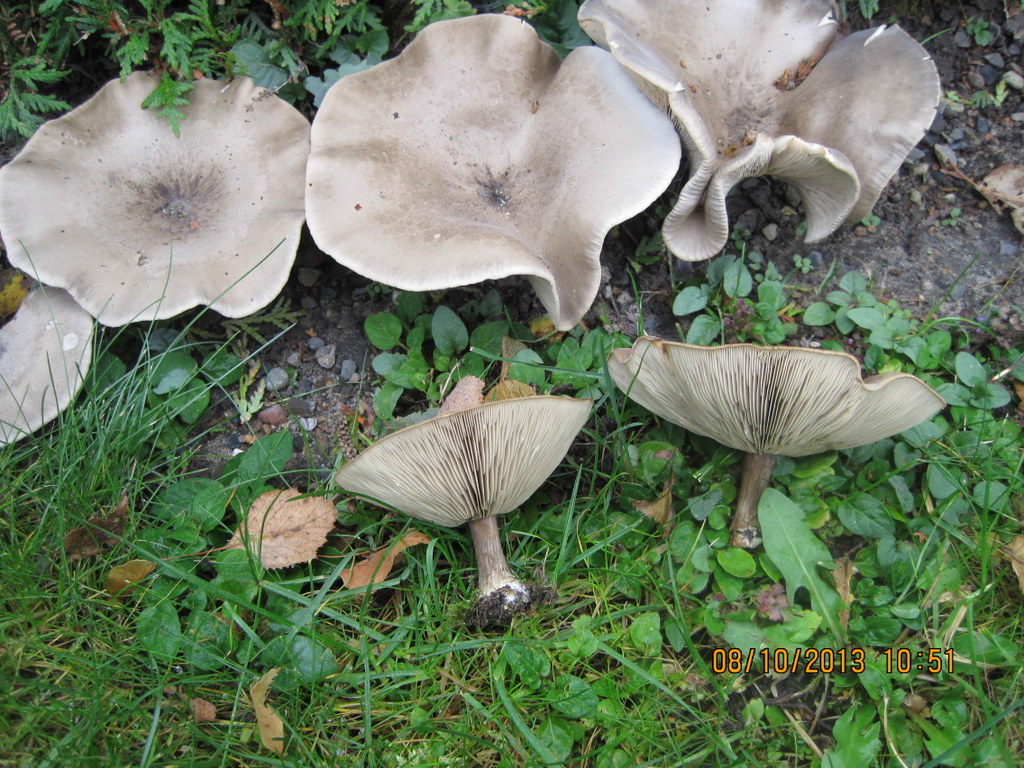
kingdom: Fungi
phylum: Basidiomycota
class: Agaricomycetes
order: Agaricales
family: Tricholomataceae
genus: Melanoleuca
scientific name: Melanoleuca
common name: munkehat
